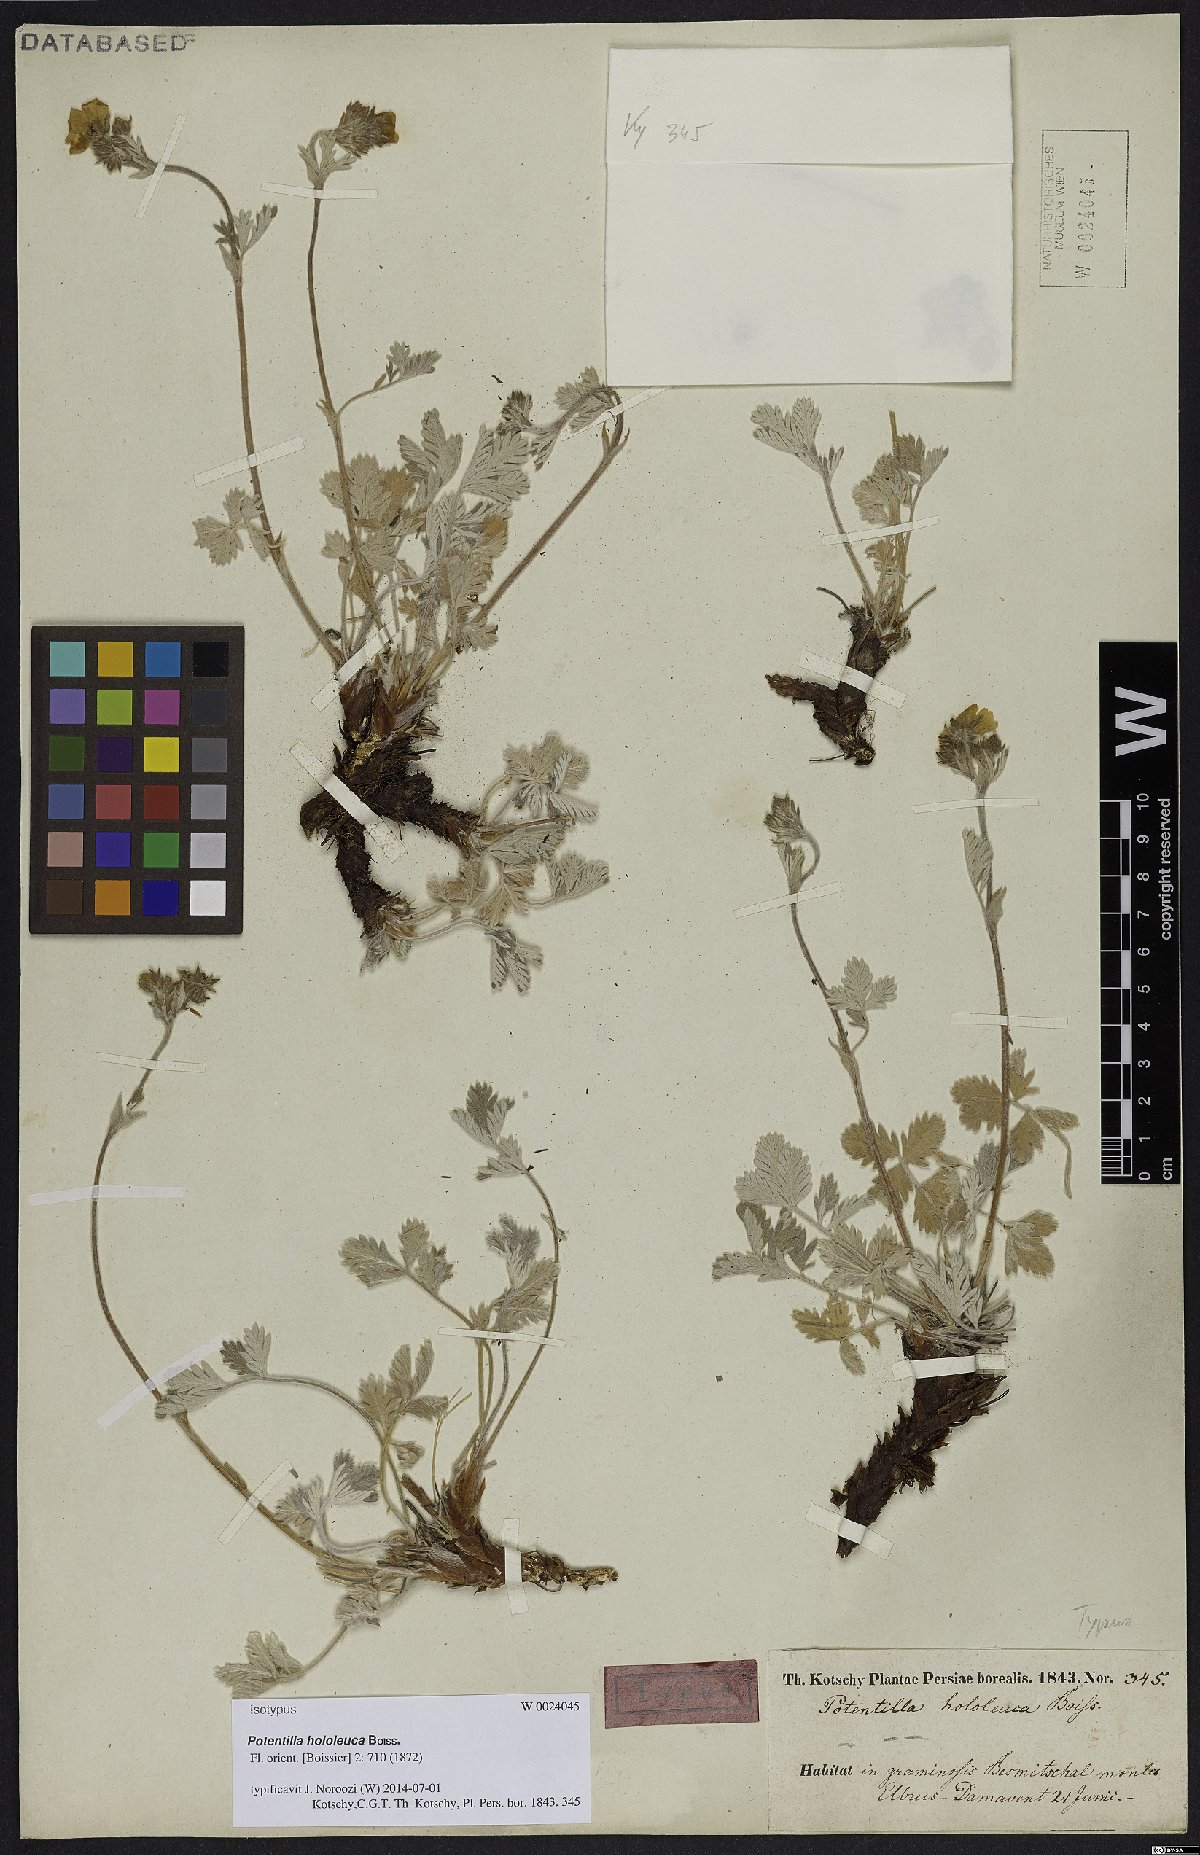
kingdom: Plantae
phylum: Tracheophyta
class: Magnoliopsida
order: Rosales
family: Rosaceae
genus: Potentilla
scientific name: Potentilla hololeuca
